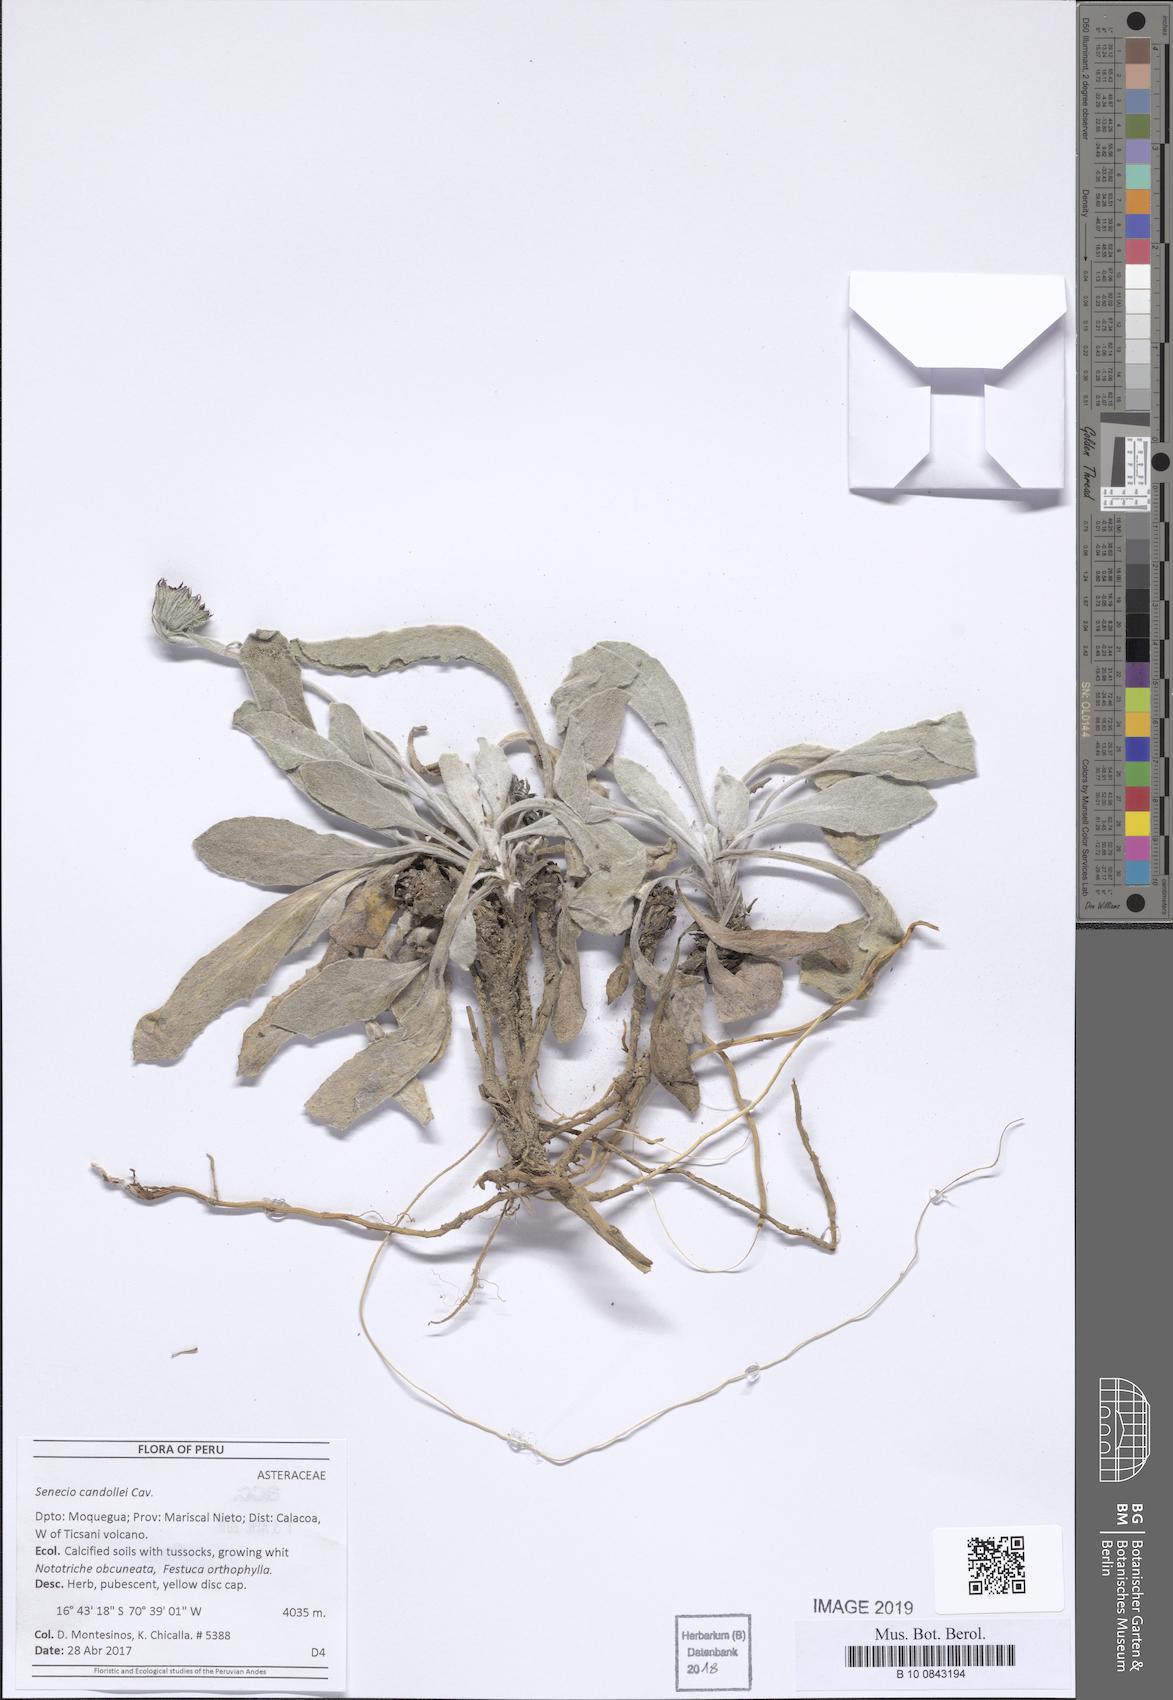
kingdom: Plantae
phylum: Tracheophyta
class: Magnoliopsida
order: Asterales
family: Asteraceae
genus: Culcitium
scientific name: Culcitium humile
